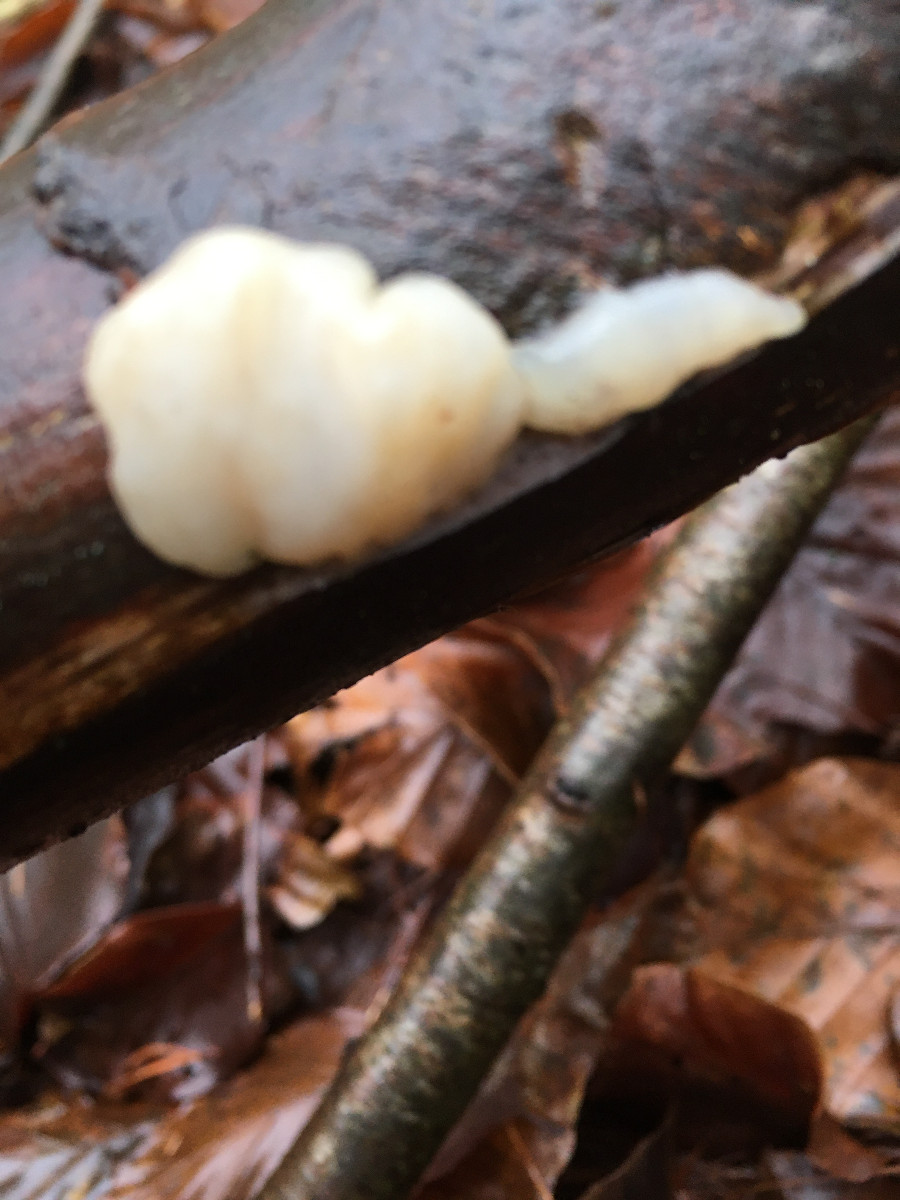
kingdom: Fungi
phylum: Basidiomycota
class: Agaricomycetes
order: Auriculariales
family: Auriculariaceae
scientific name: Auriculariaceae
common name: judasørefamilien
